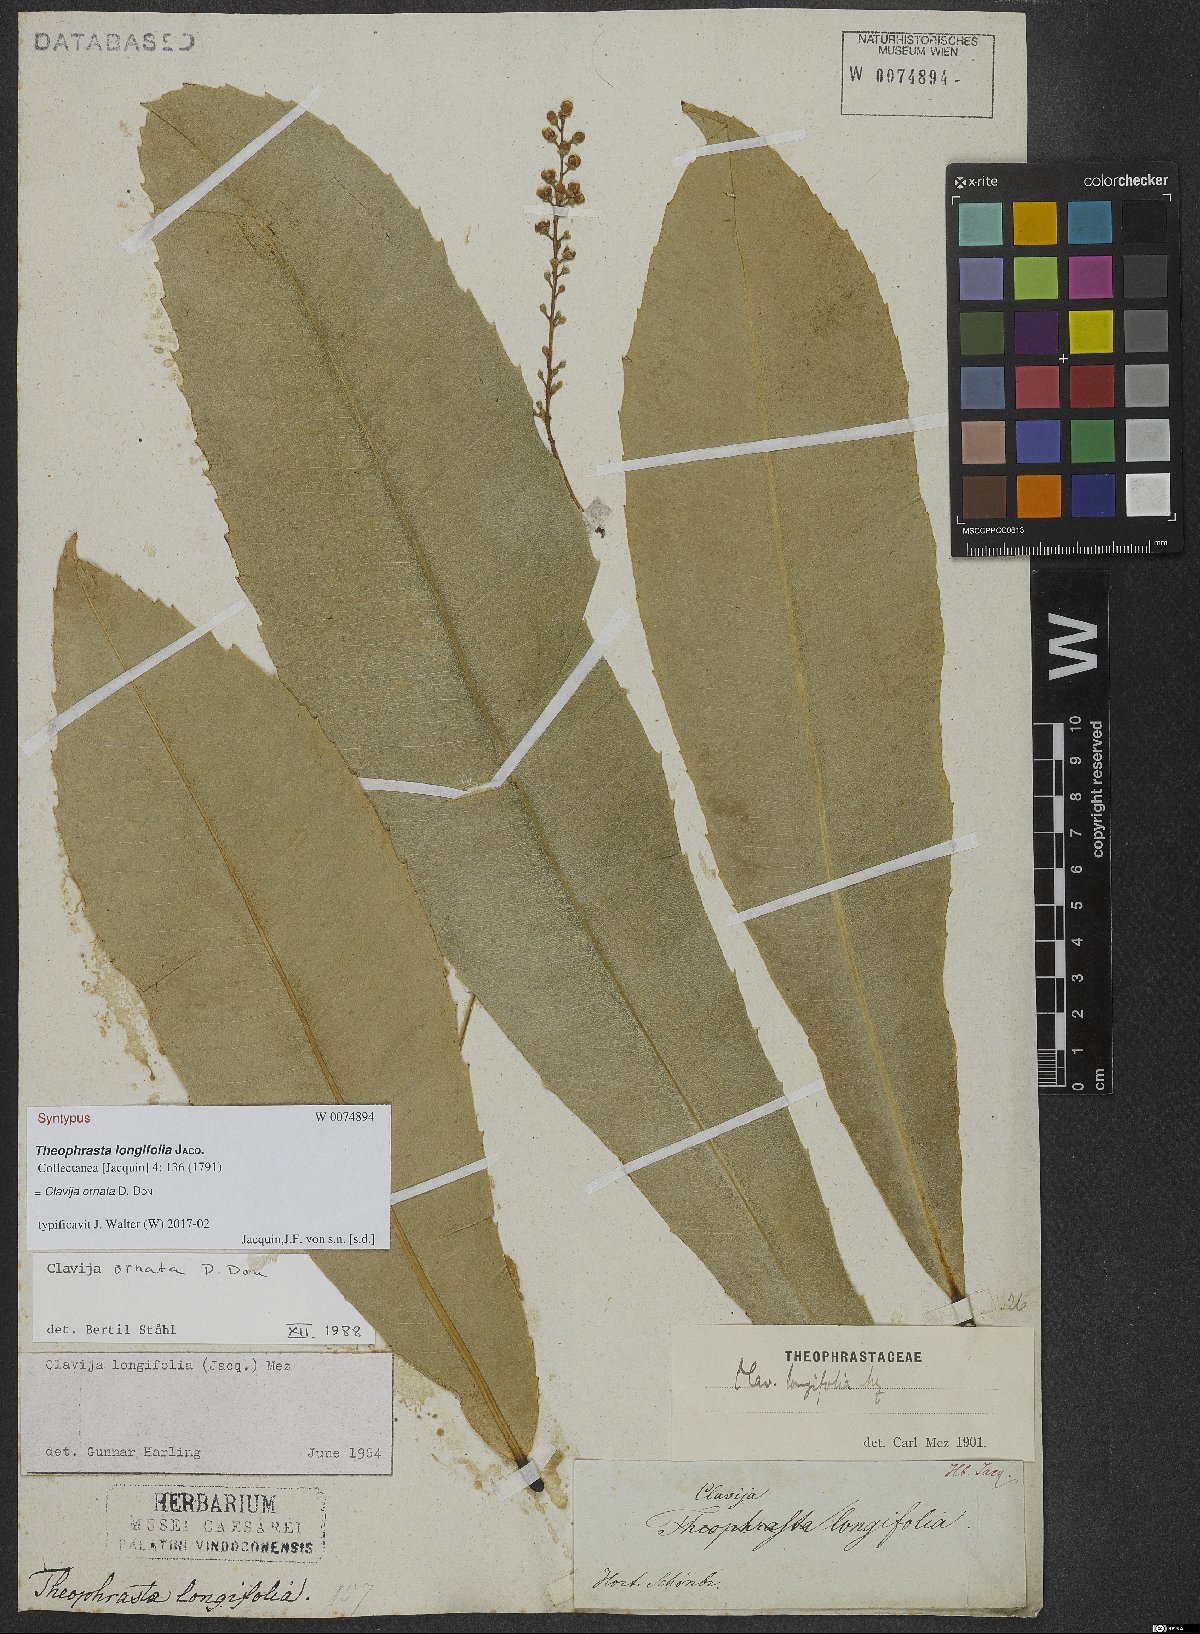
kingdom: Plantae
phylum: Tracheophyta
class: Magnoliopsida
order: Ericales
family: Primulaceae
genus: Clavija
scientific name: Clavija ornata
